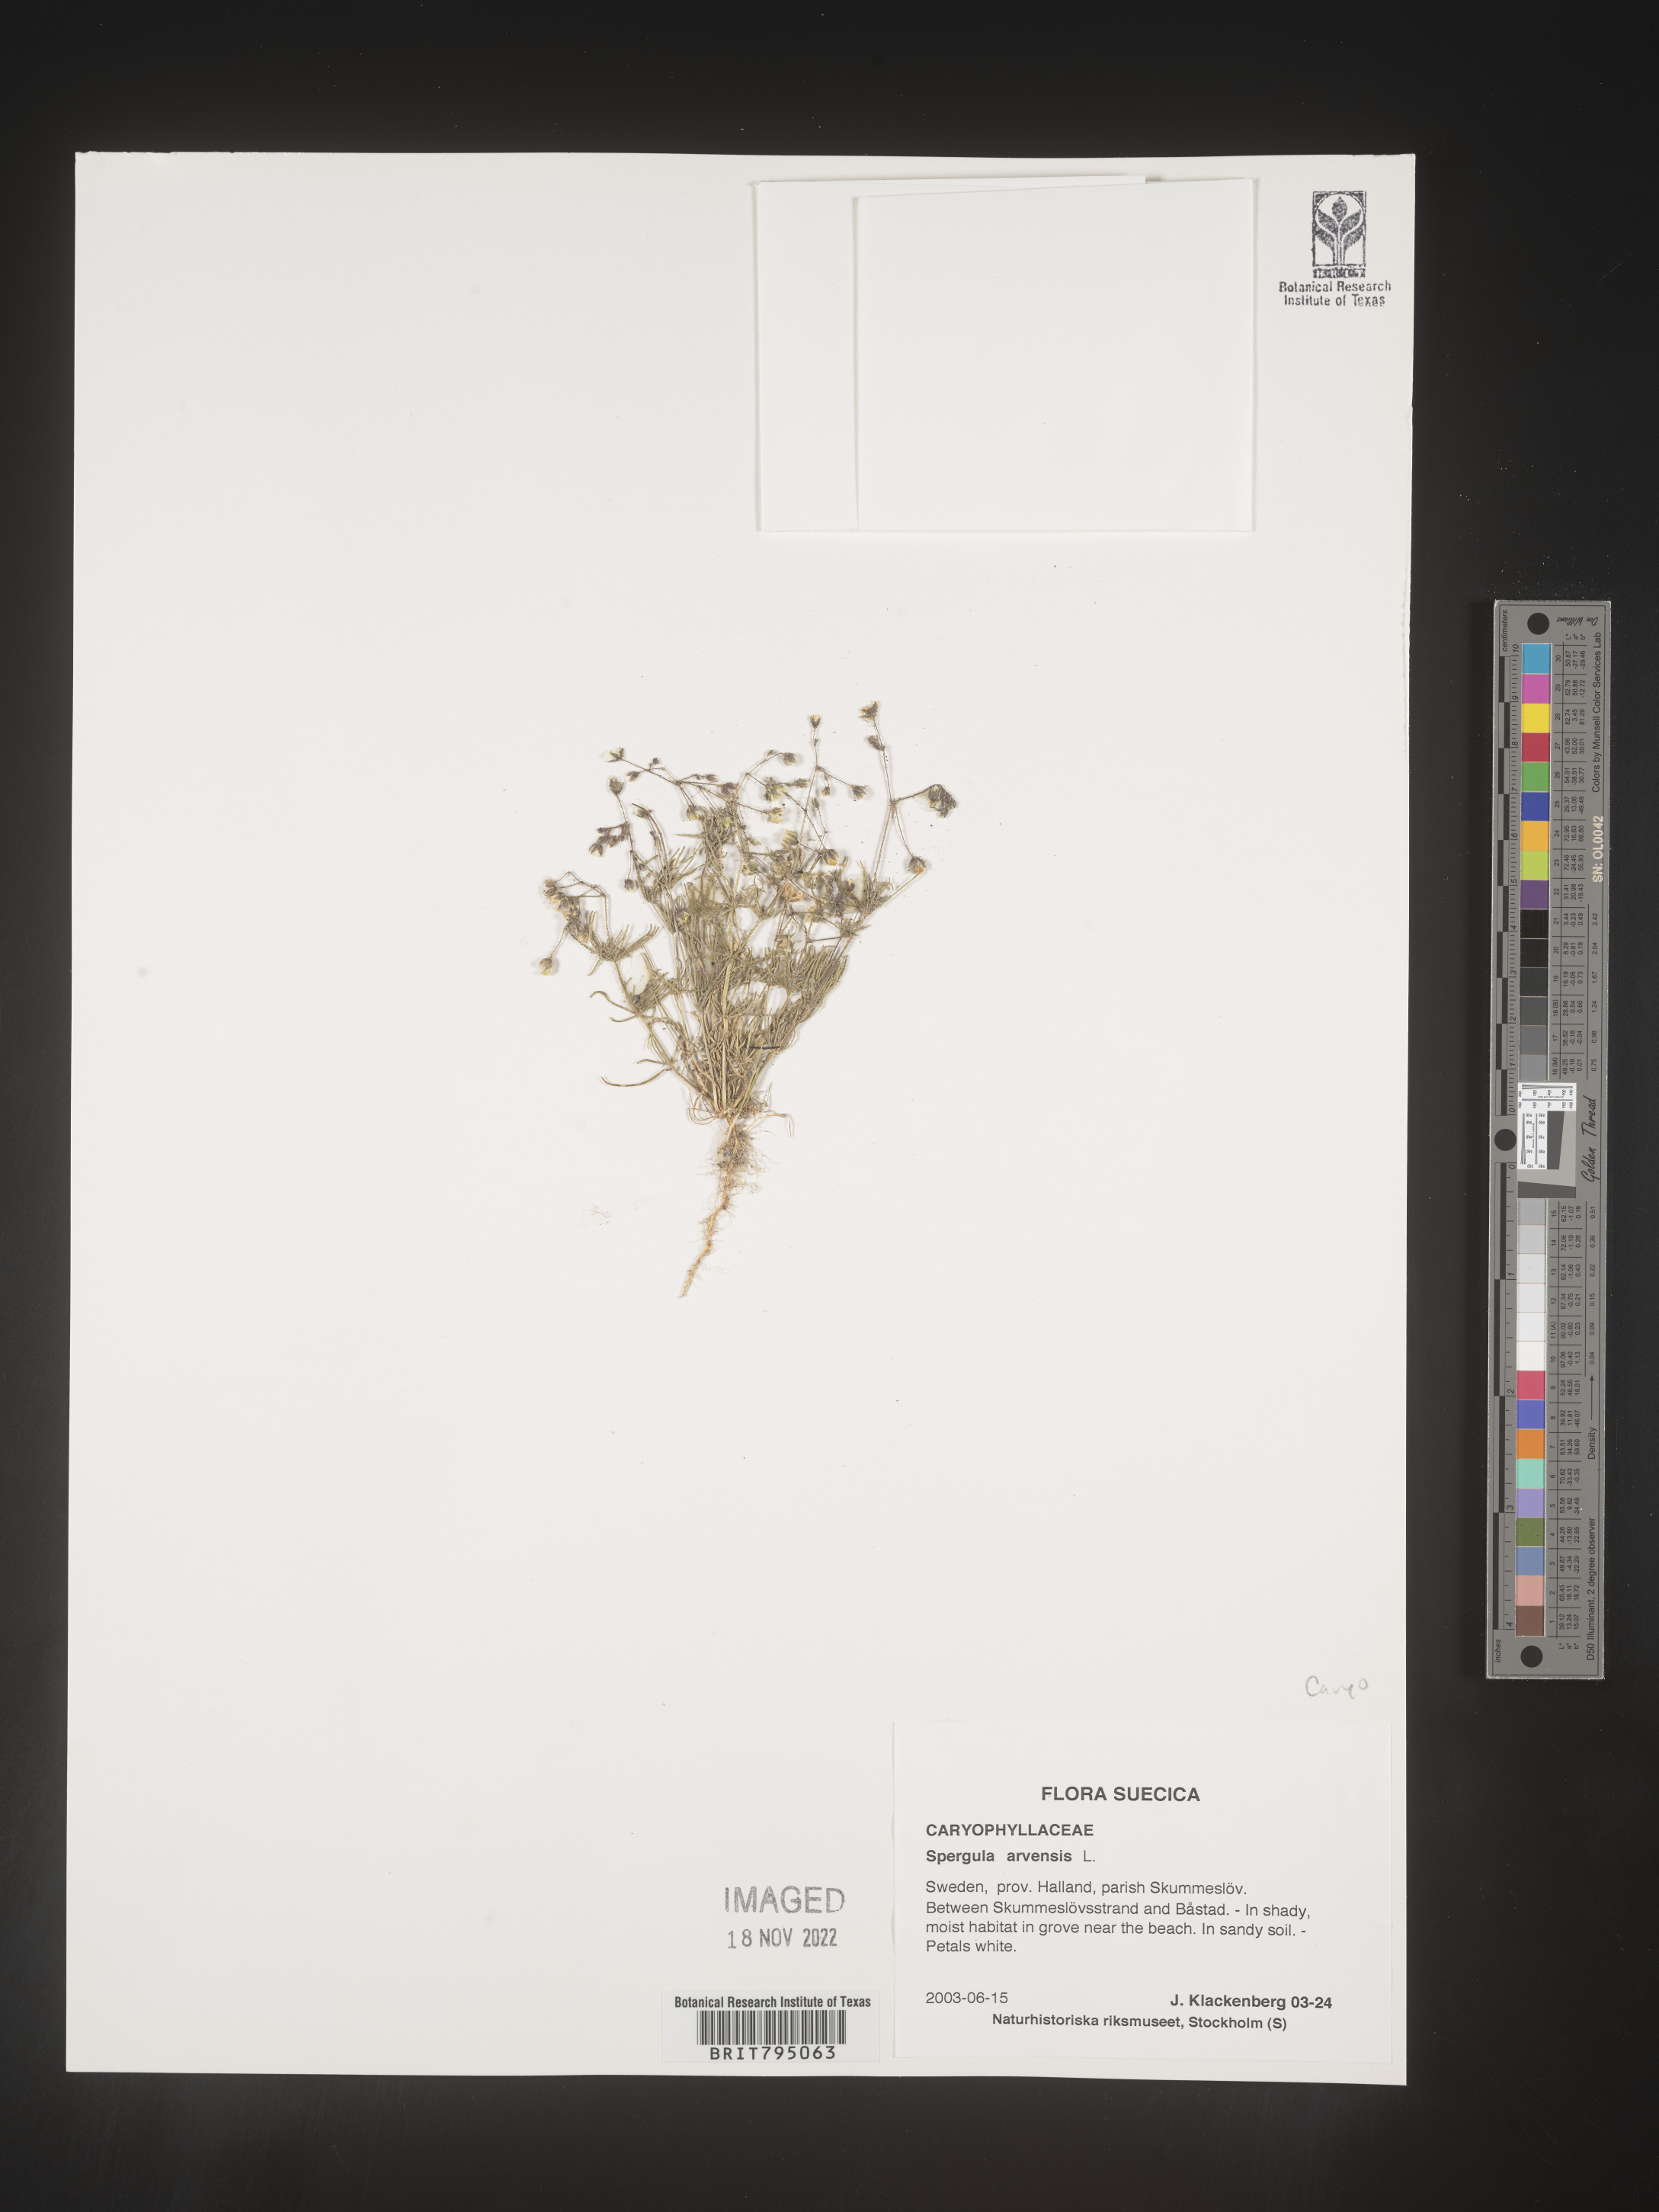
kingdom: Plantae
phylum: Tracheophyta
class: Magnoliopsida
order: Caryophyllales
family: Caryophyllaceae
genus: Spergula
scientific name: Spergula arvensis
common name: Corn spurrey
